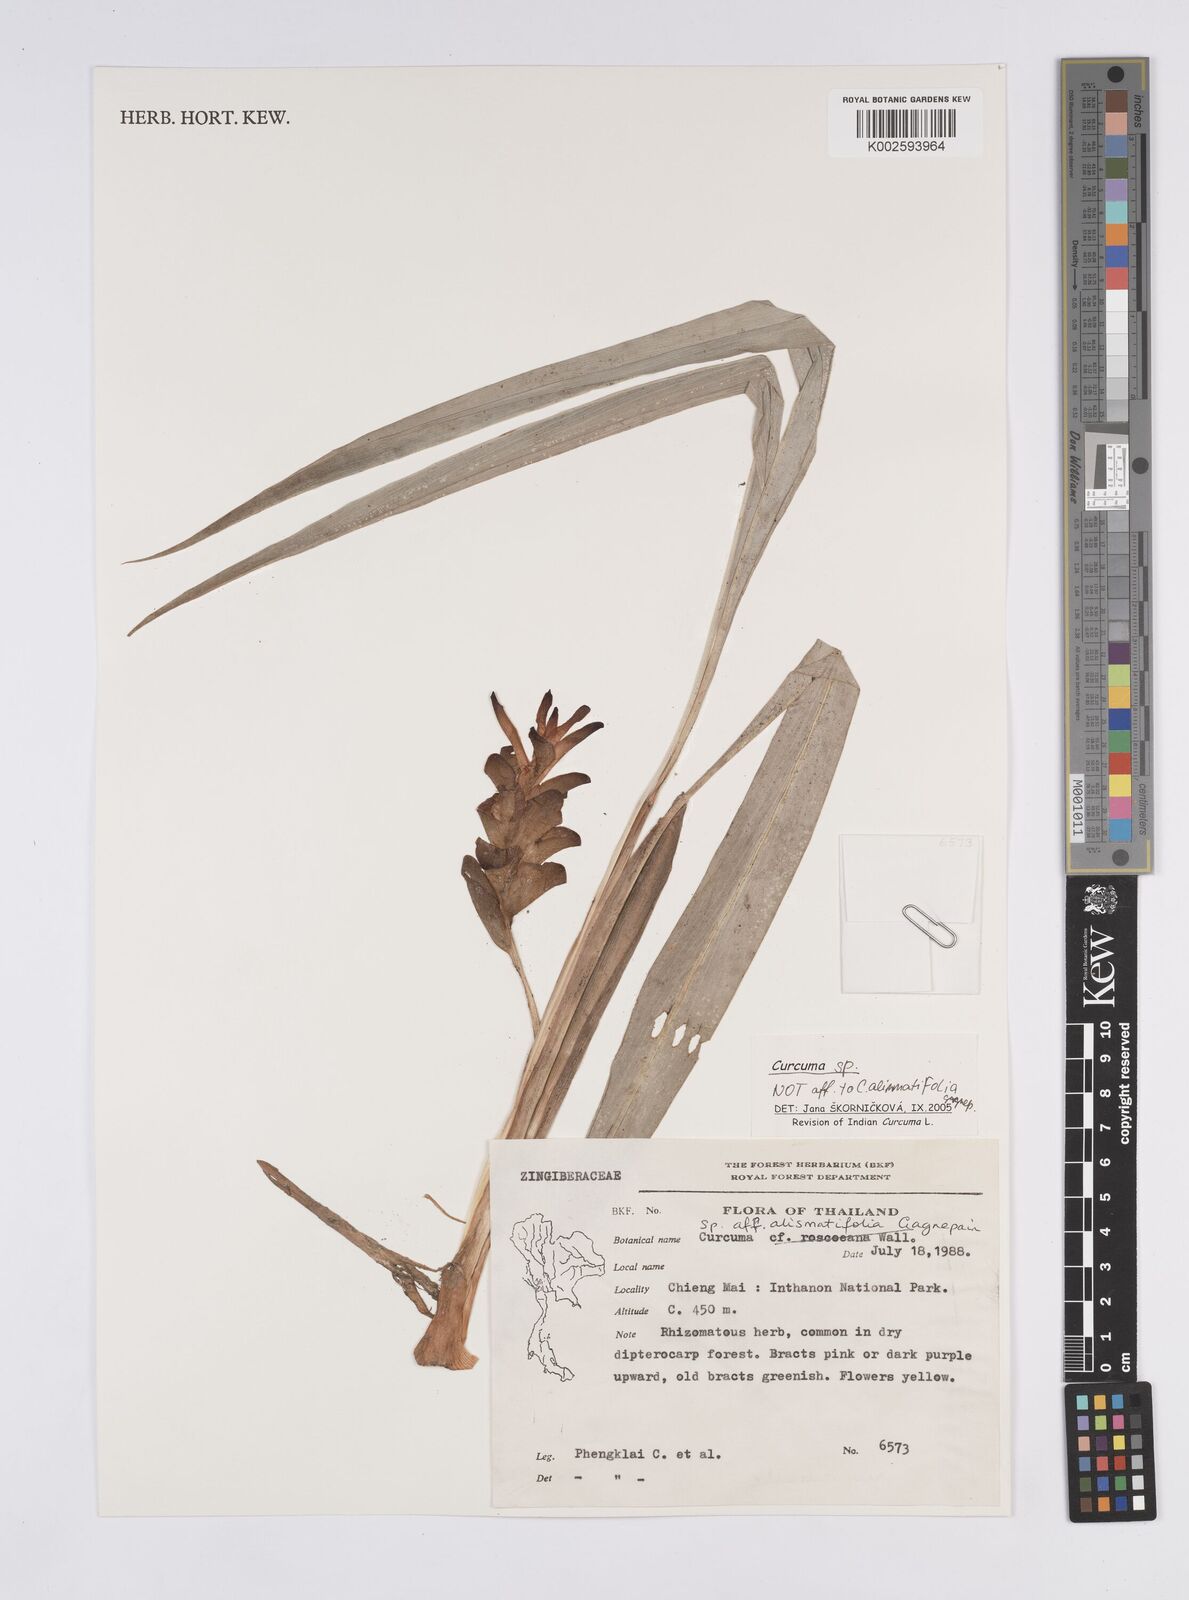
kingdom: Plantae
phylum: Tracheophyta
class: Liliopsida
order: Zingiberales
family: Zingiberaceae
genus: Curcuma
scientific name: Curcuma
